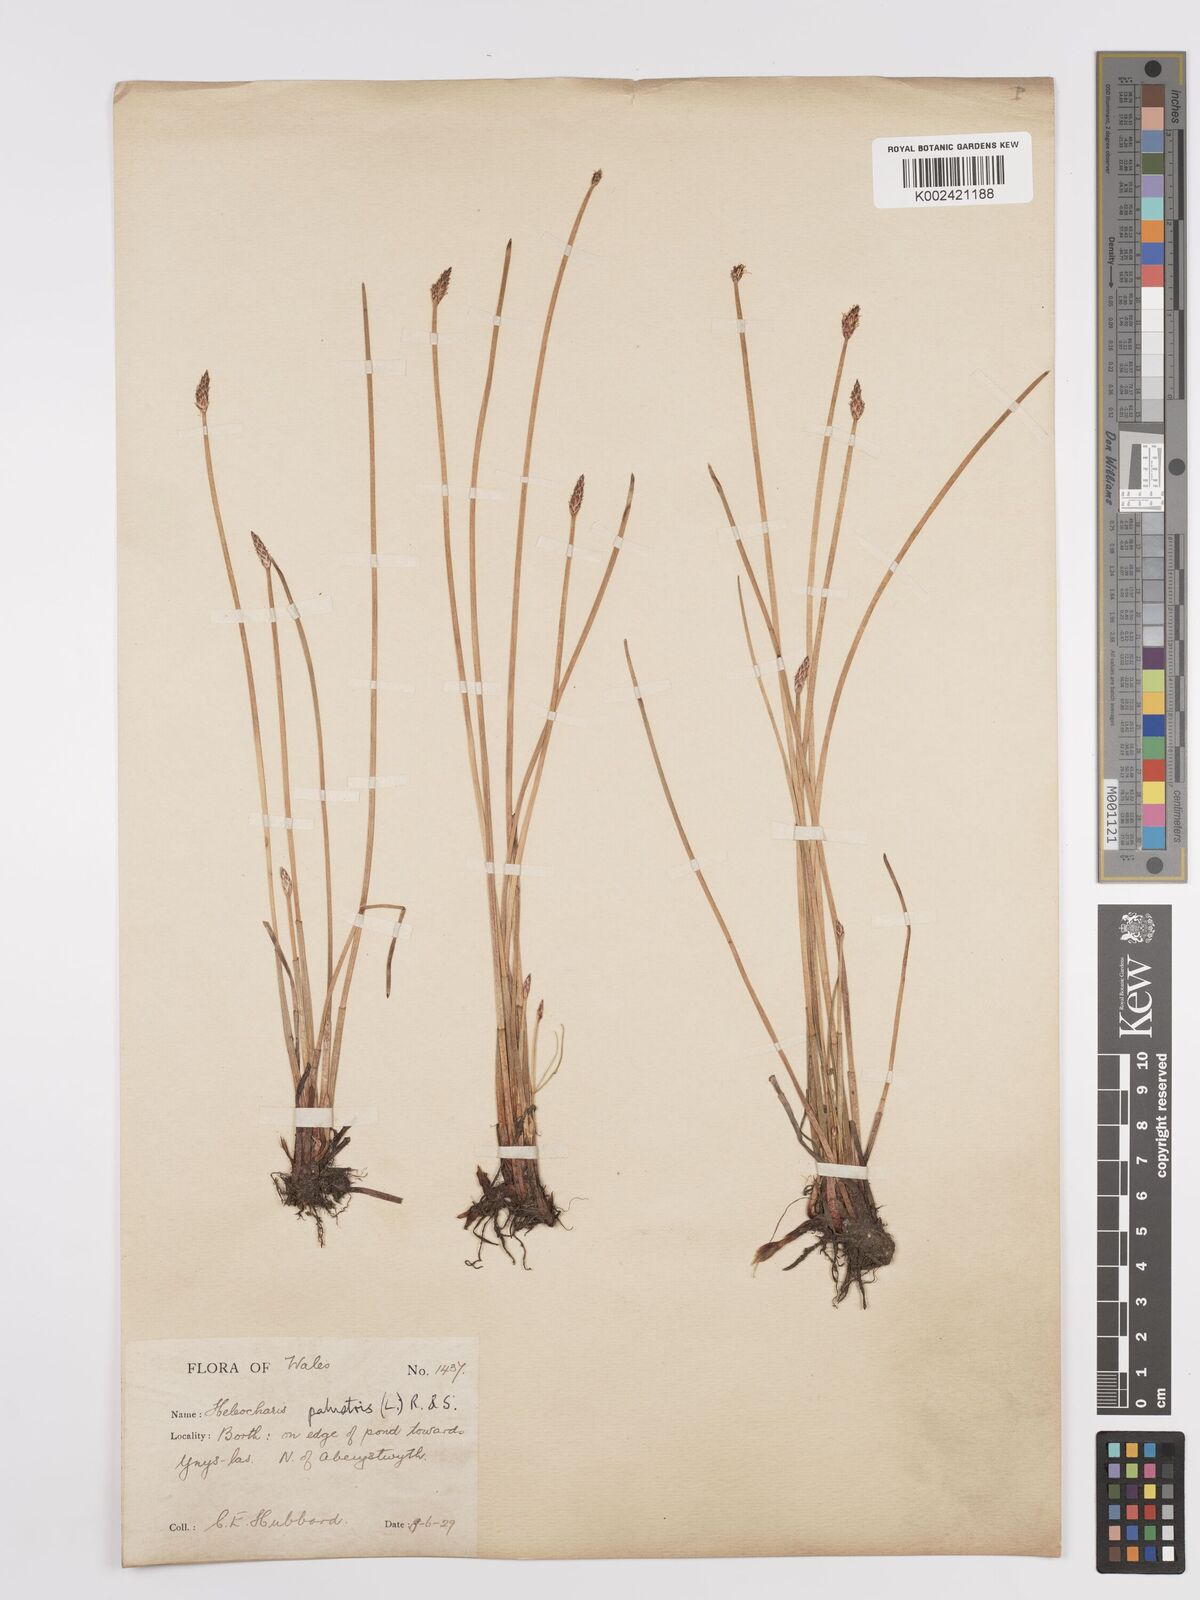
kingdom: Plantae
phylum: Tracheophyta
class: Liliopsida
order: Poales
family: Cyperaceae
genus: Eleocharis
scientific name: Eleocharis palustris
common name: Common spike-rush
